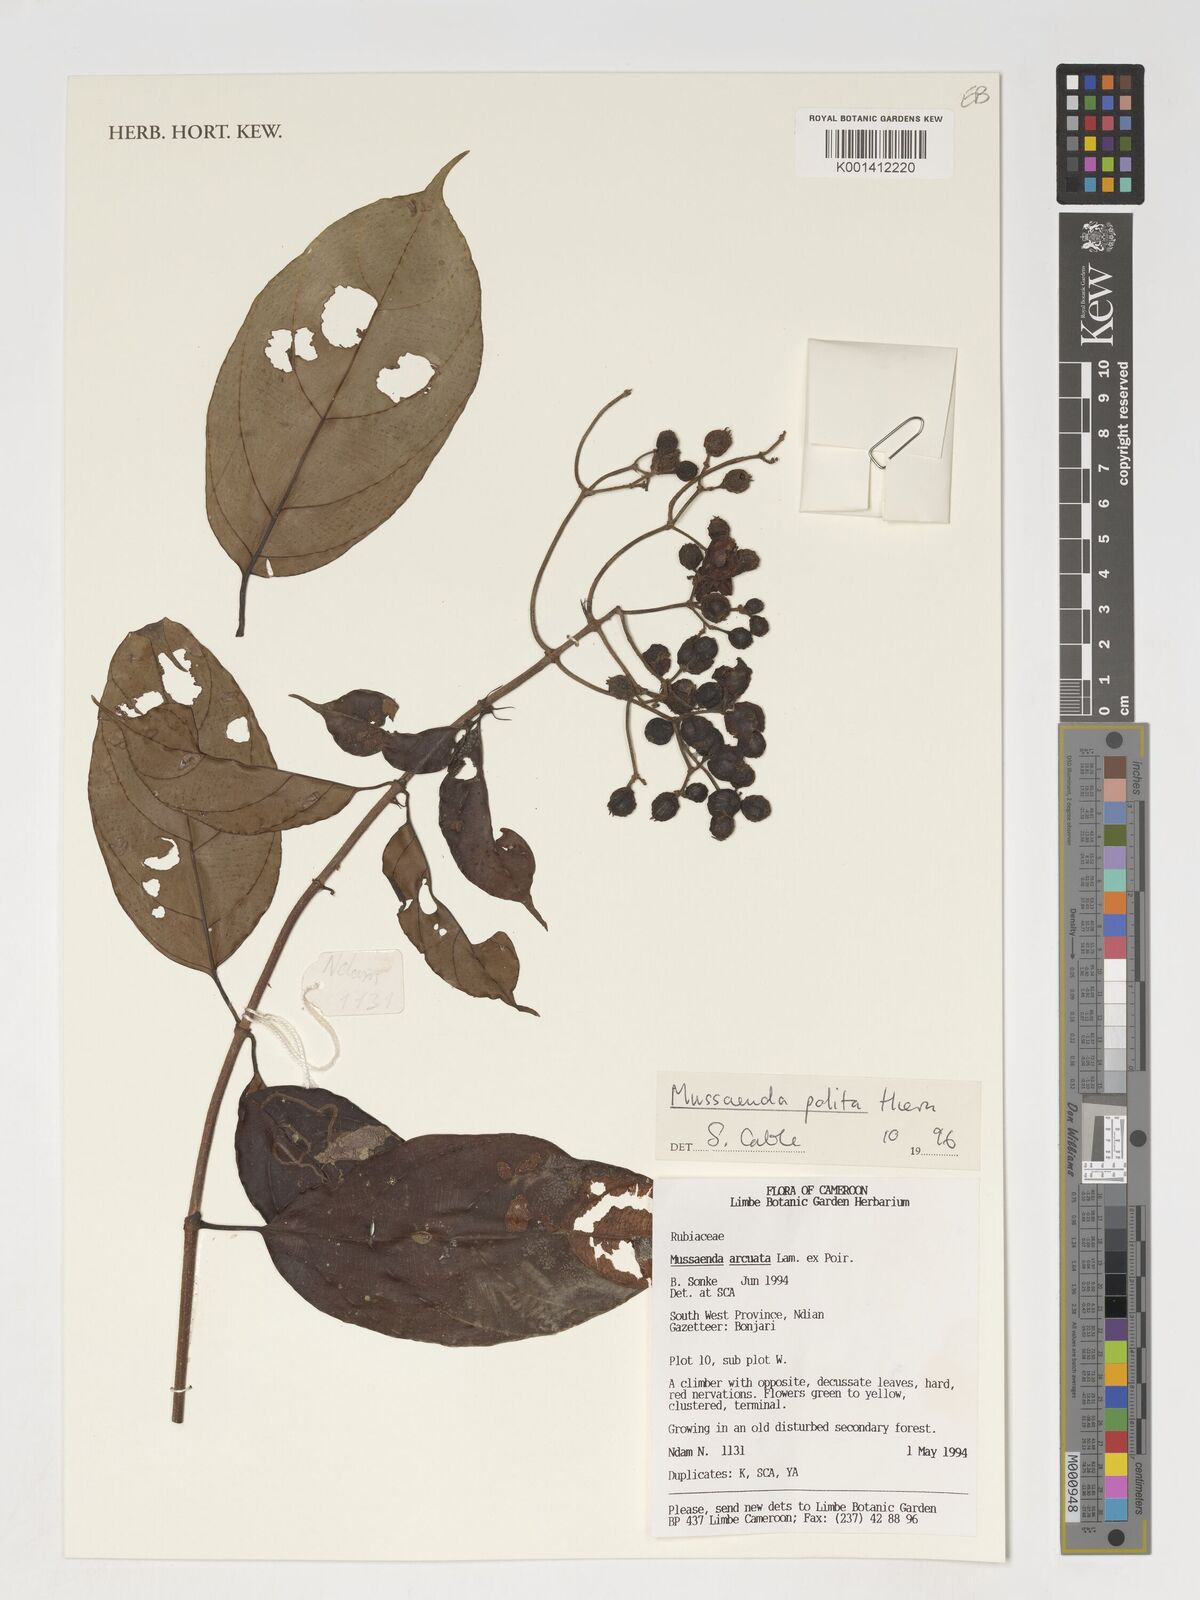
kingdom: Plantae
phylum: Tracheophyta
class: Magnoliopsida
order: Gentianales
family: Rubiaceae
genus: Mussaenda
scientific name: Mussaenda polita
